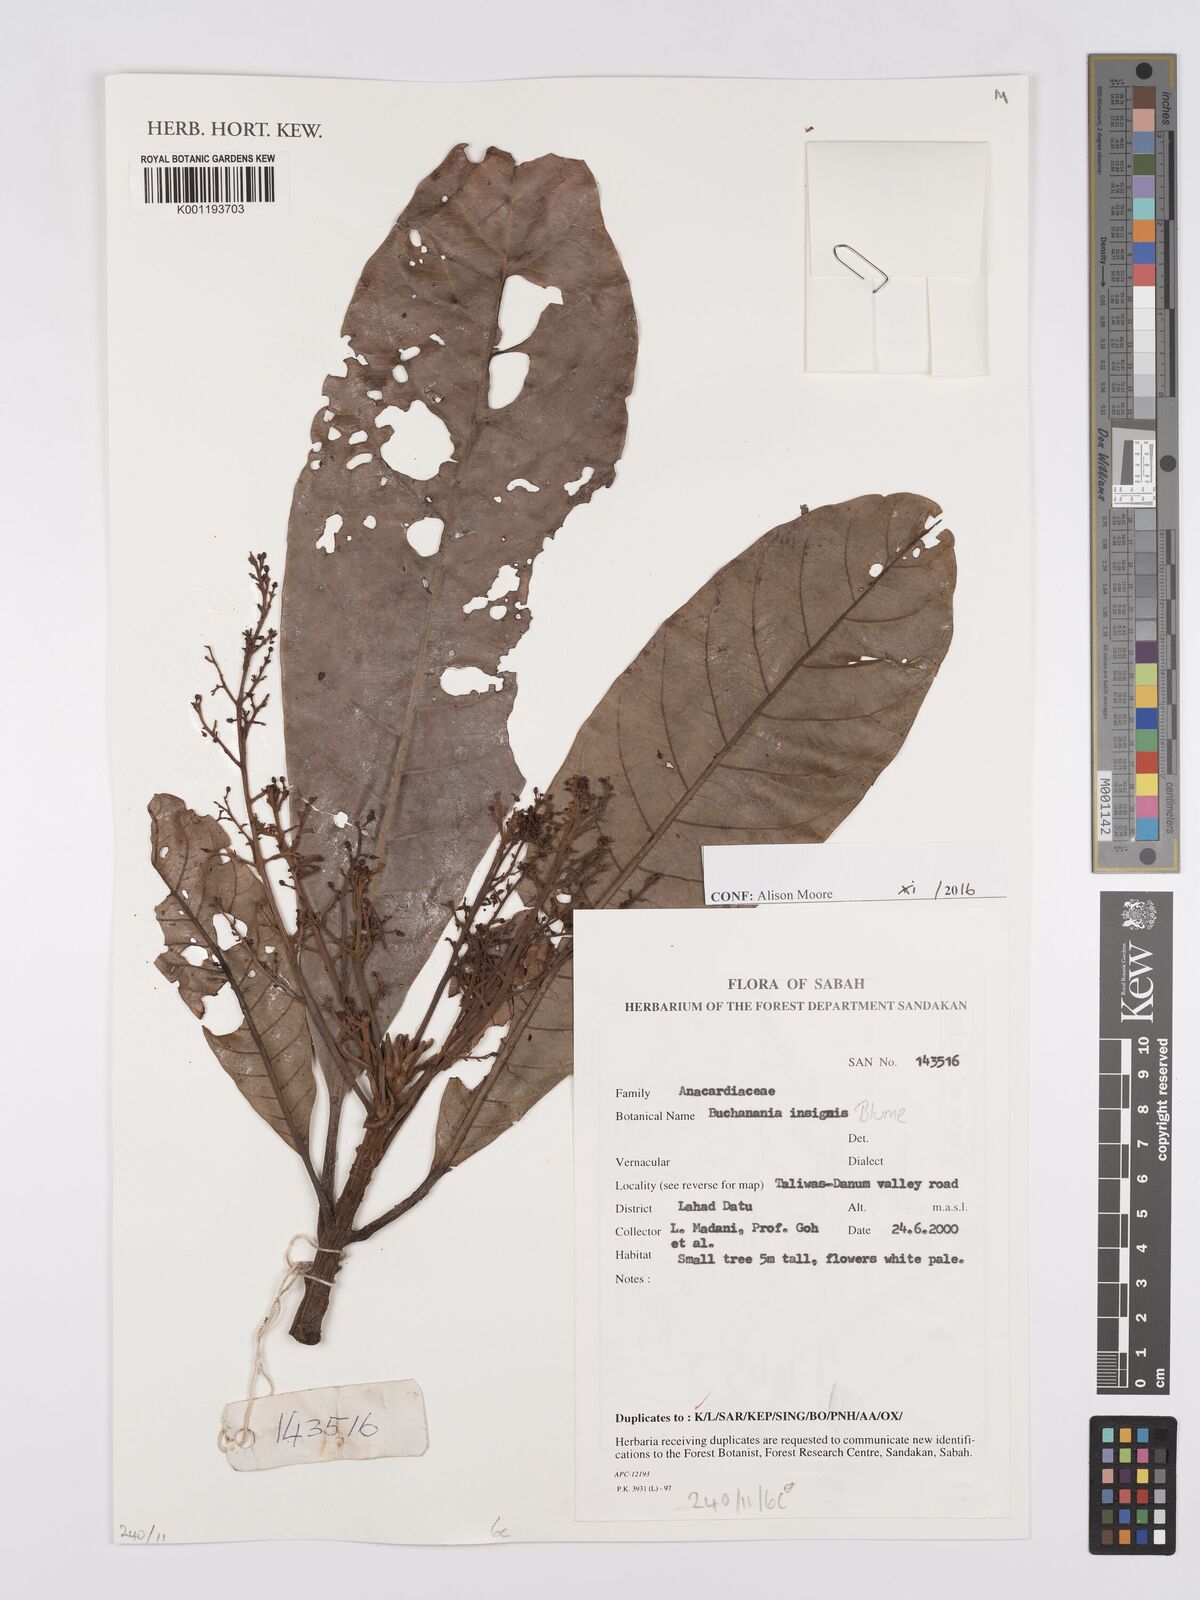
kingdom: Plantae
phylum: Tracheophyta
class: Magnoliopsida
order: Sapindales
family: Anacardiaceae
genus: Buchanania
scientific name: Buchanania insignis
